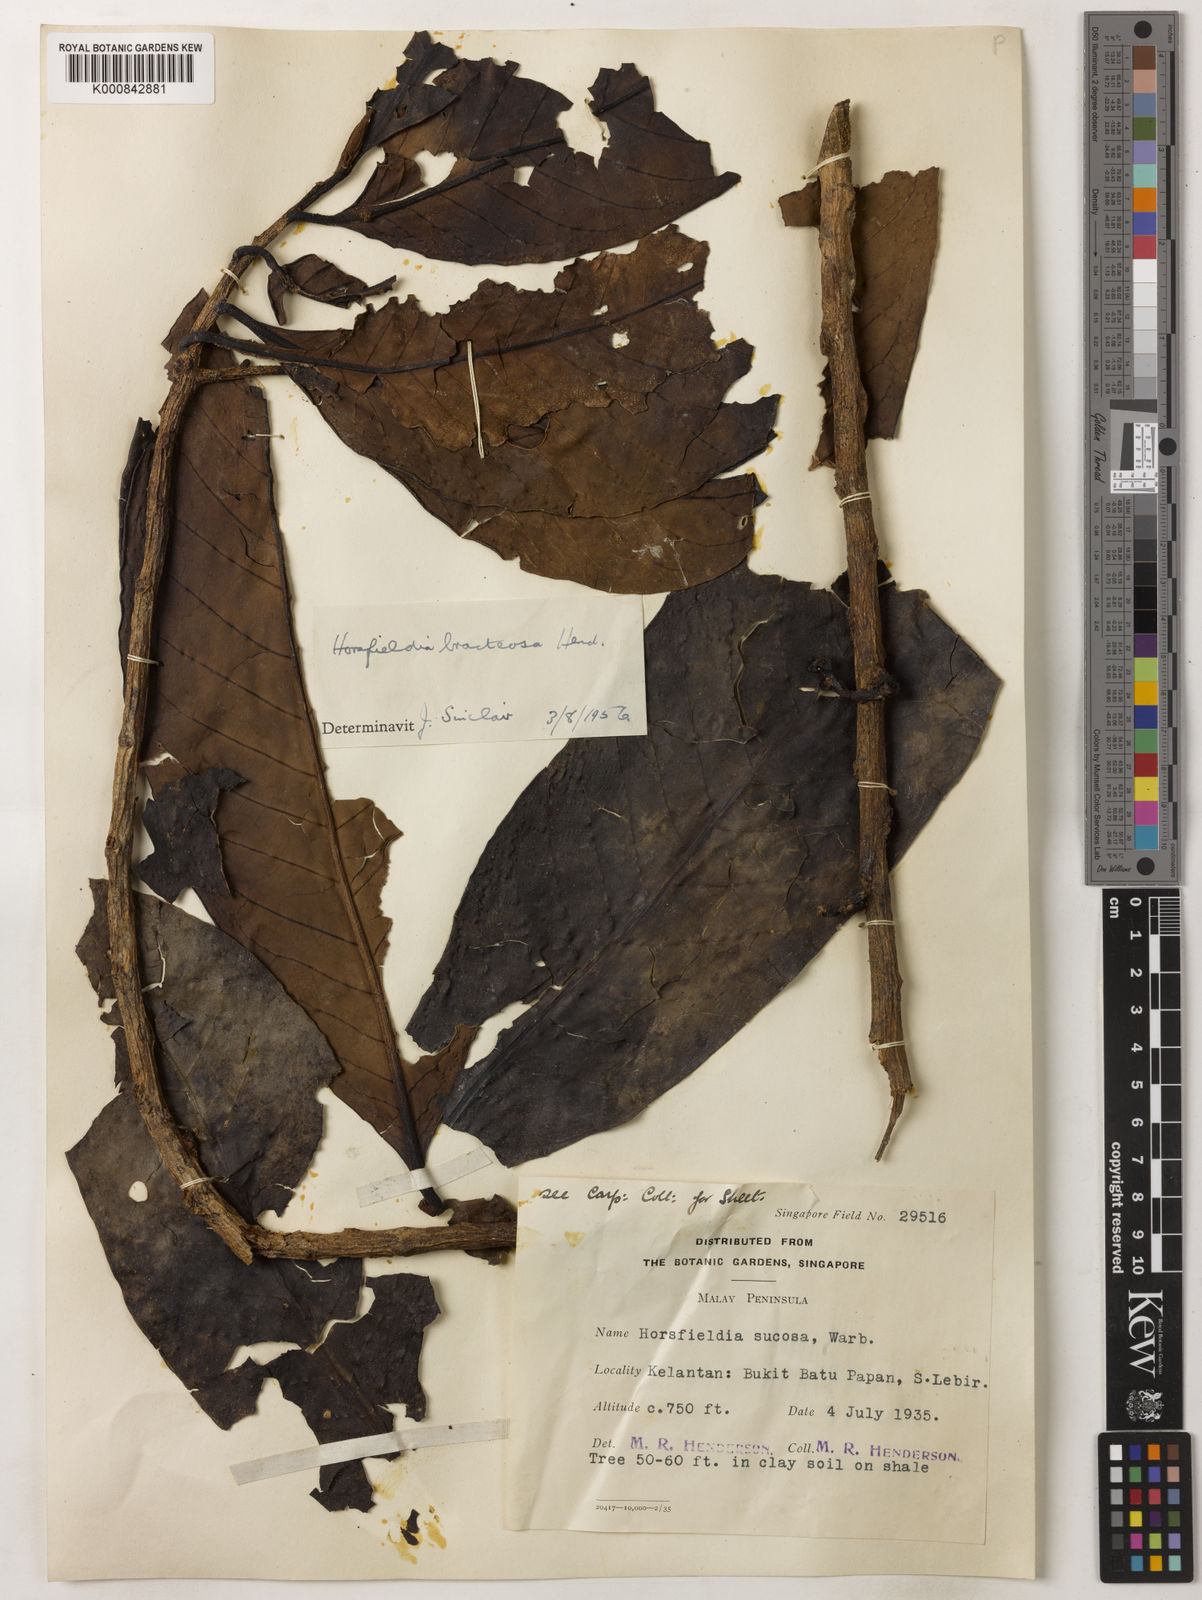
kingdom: Plantae
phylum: Tracheophyta
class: Magnoliopsida
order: Magnoliales
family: Myristicaceae
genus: Horsfieldia
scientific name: Horsfieldia sucosa
